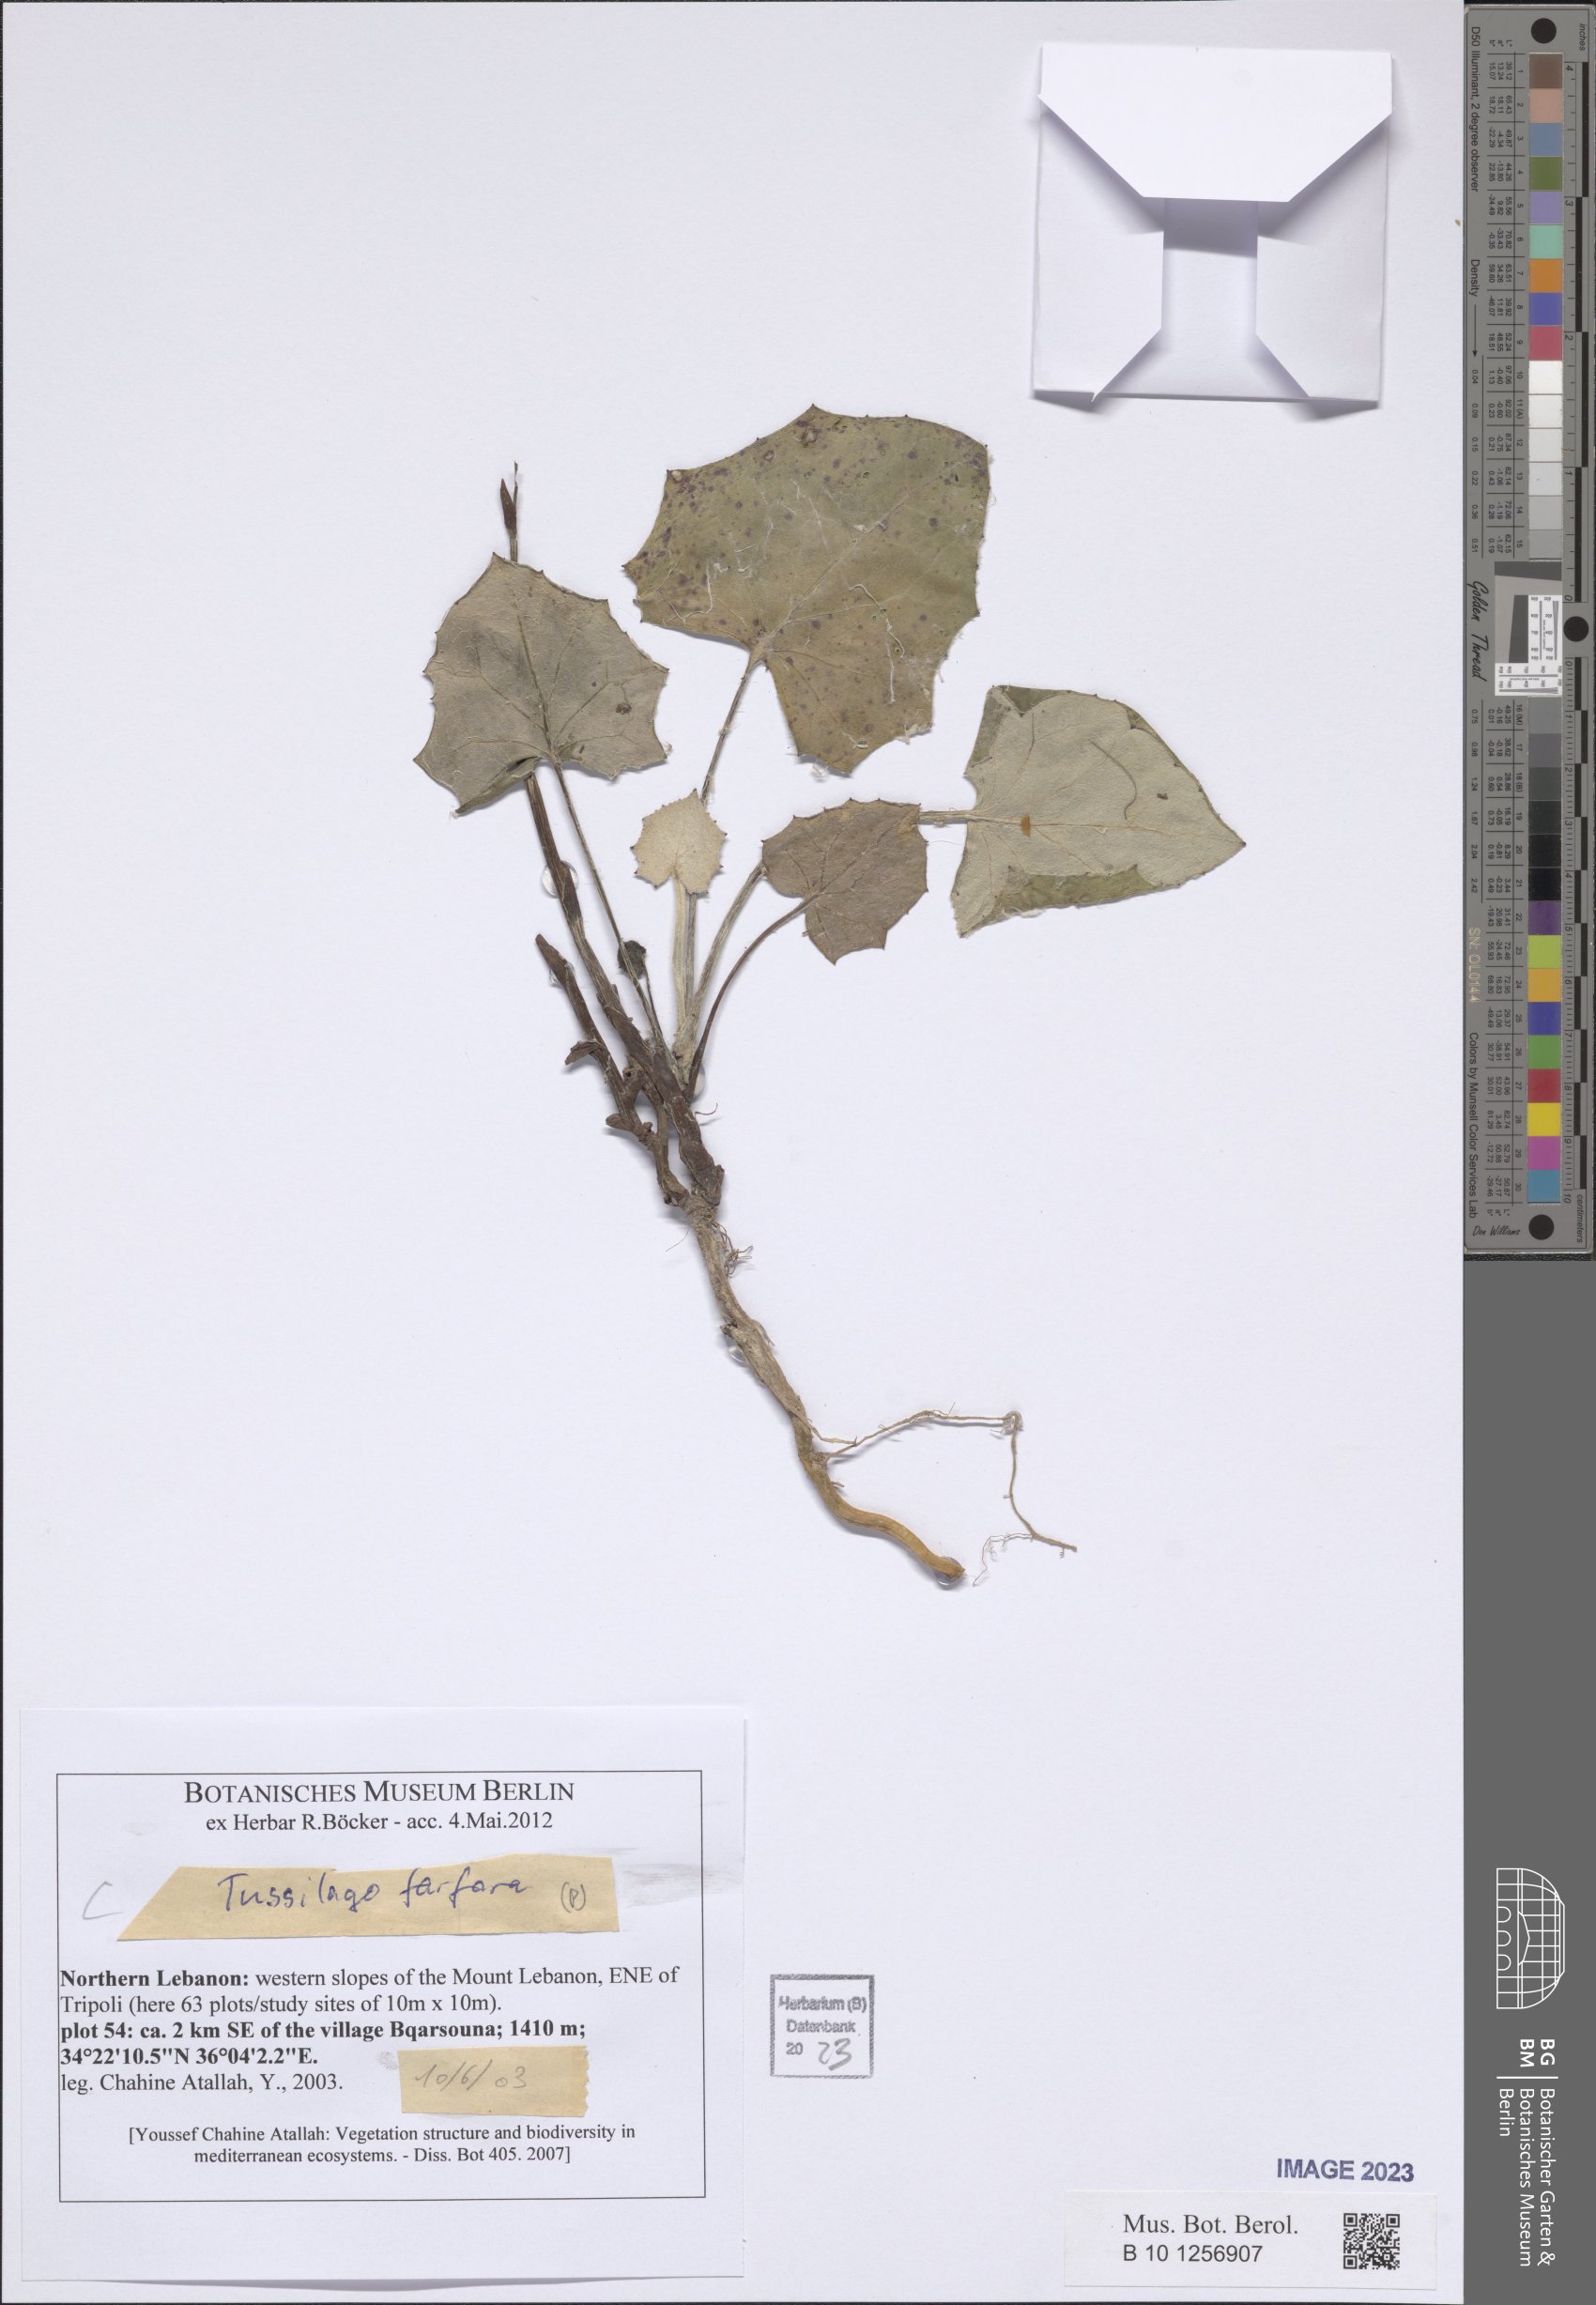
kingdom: Plantae
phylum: Tracheophyta
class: Magnoliopsida
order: Asterales
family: Asteraceae
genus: Tussilago
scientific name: Tussilago farfara
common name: Coltsfoot
